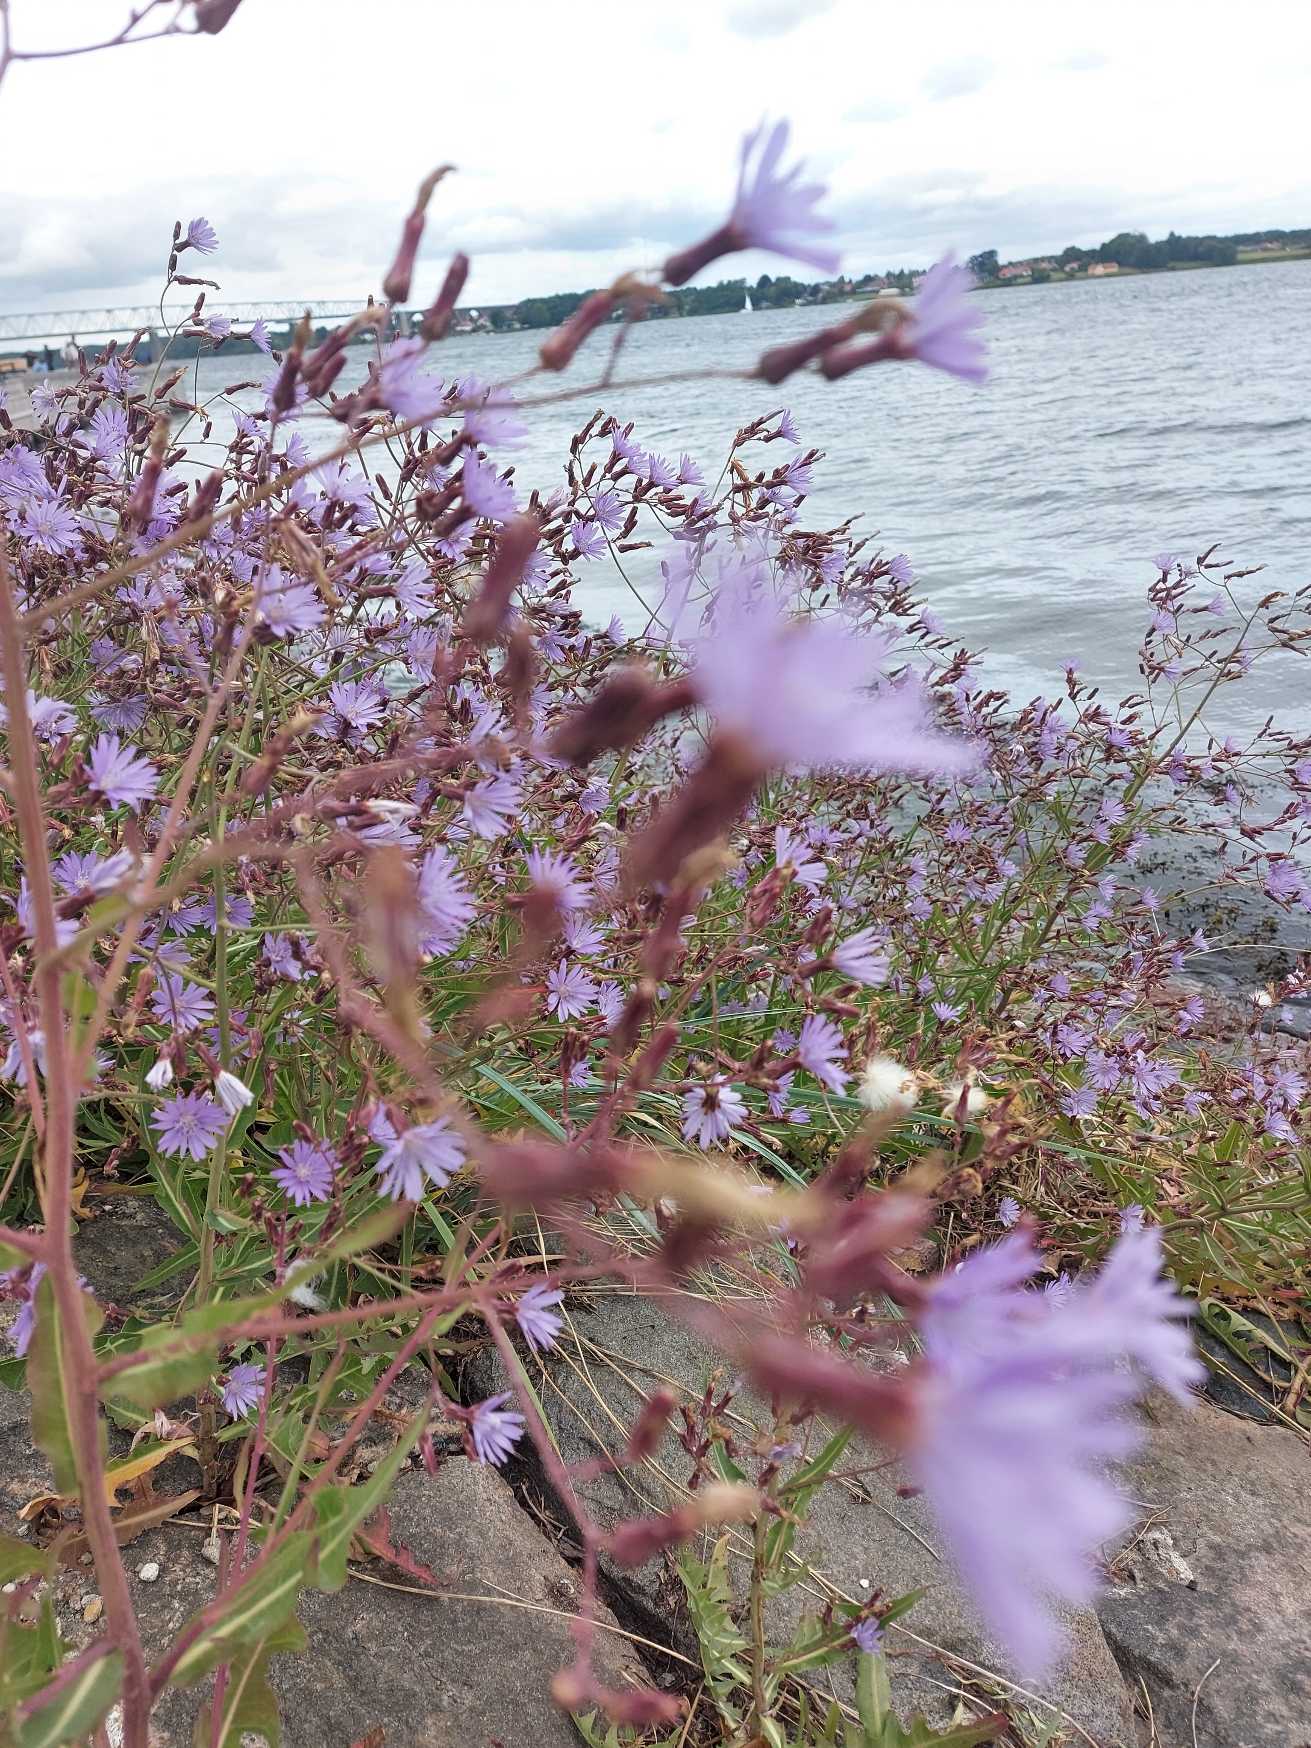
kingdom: Plantae
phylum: Tracheophyta
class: Magnoliopsida
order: Asterales
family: Asteraceae
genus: Lactuca
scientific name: Lactuca tatarica
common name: Strand-salat
